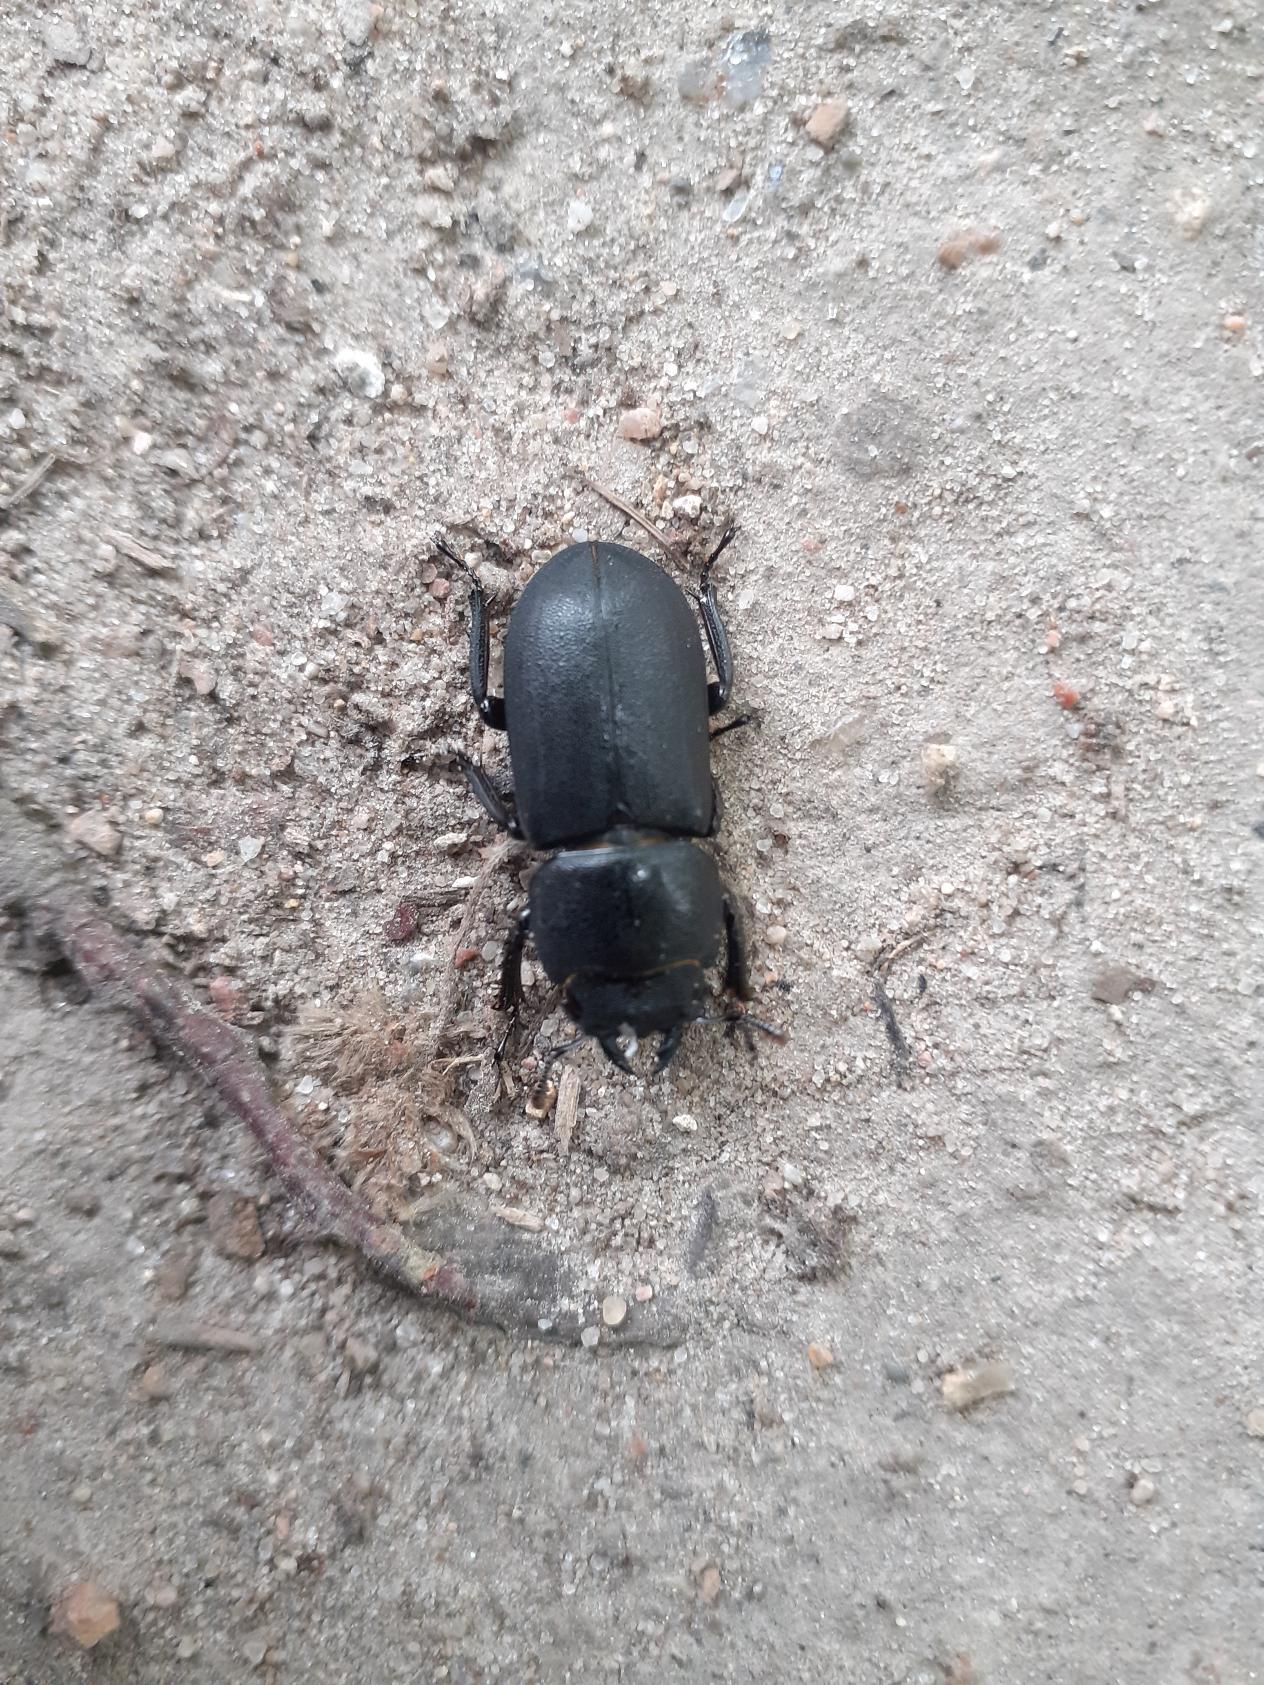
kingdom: Animalia
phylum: Arthropoda
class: Insecta
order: Coleoptera
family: Lucanidae
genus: Dorcus
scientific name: Dorcus parallelipipedus
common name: Bøghjort
